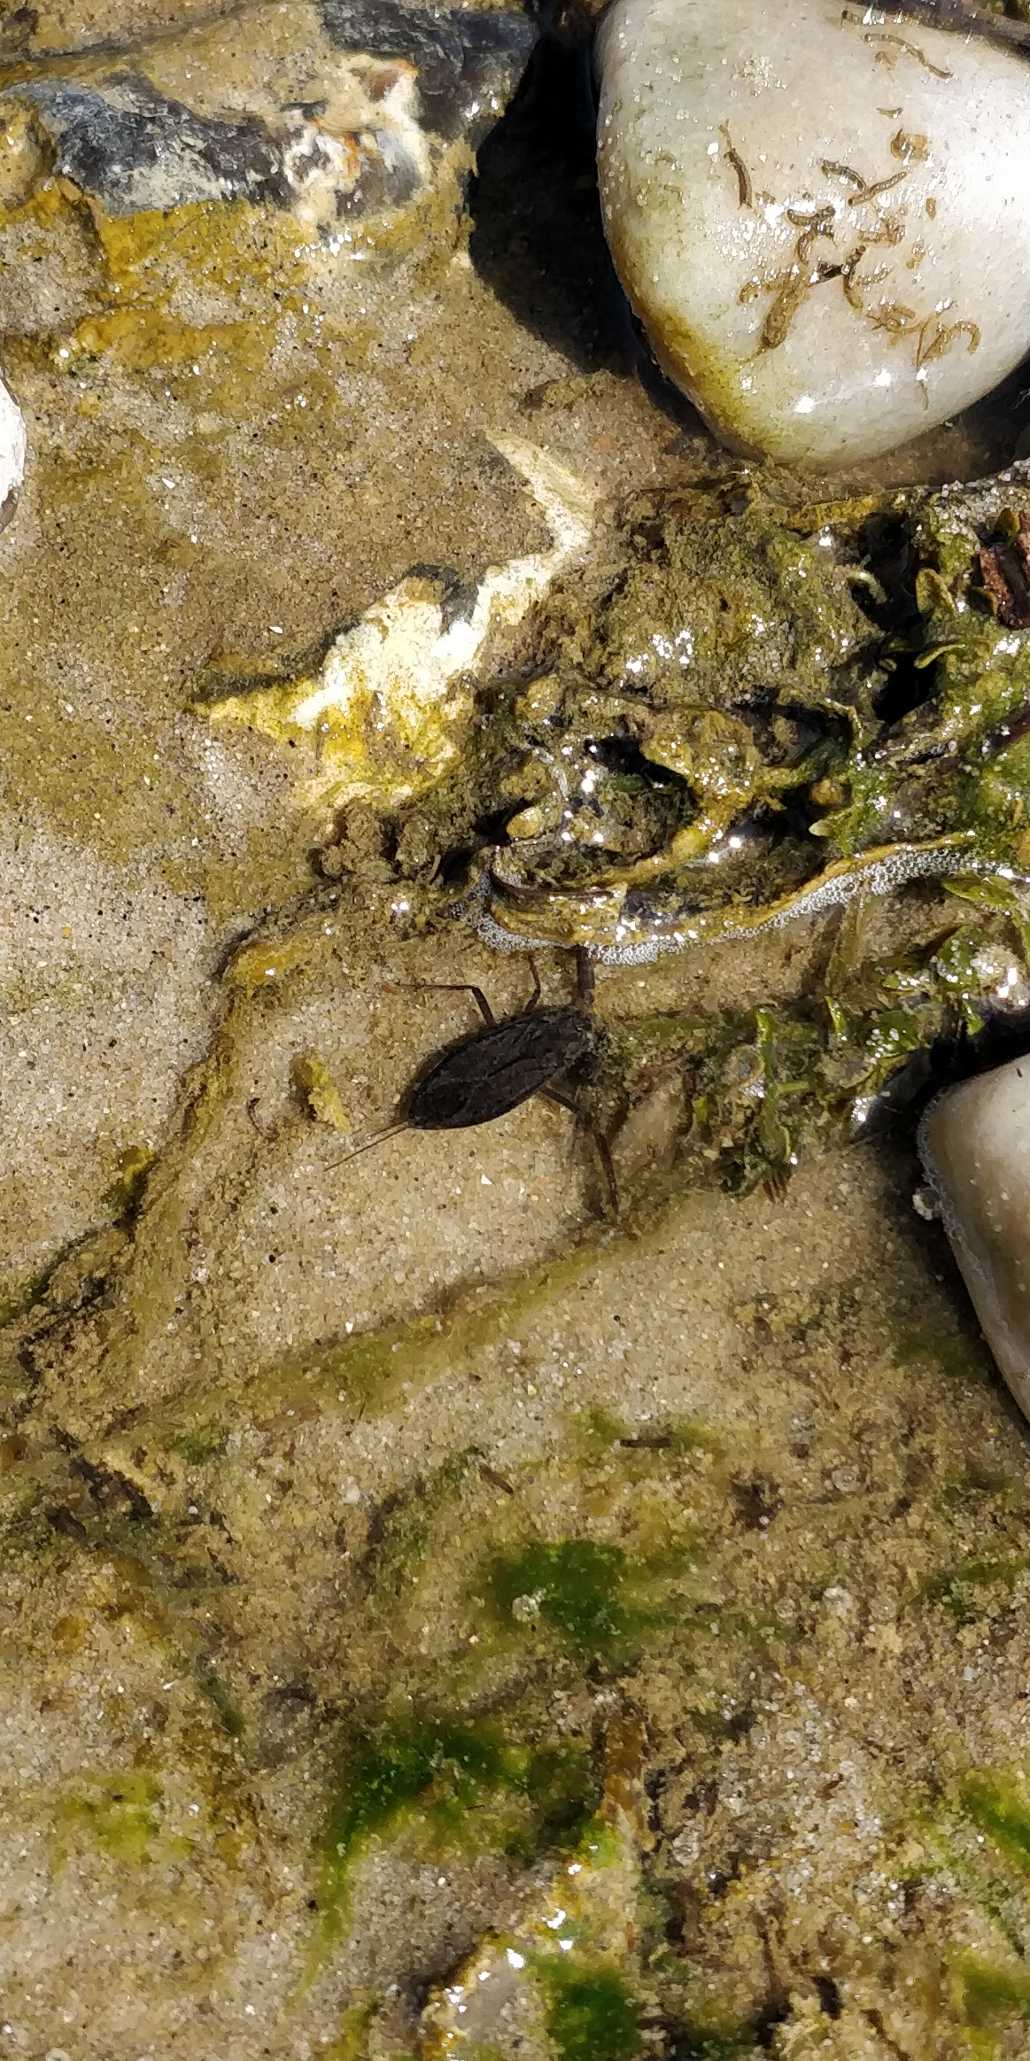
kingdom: Animalia
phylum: Arthropoda
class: Insecta
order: Hemiptera
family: Nepidae
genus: Nepa
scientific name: Nepa cinerea
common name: Skorpiontæge
